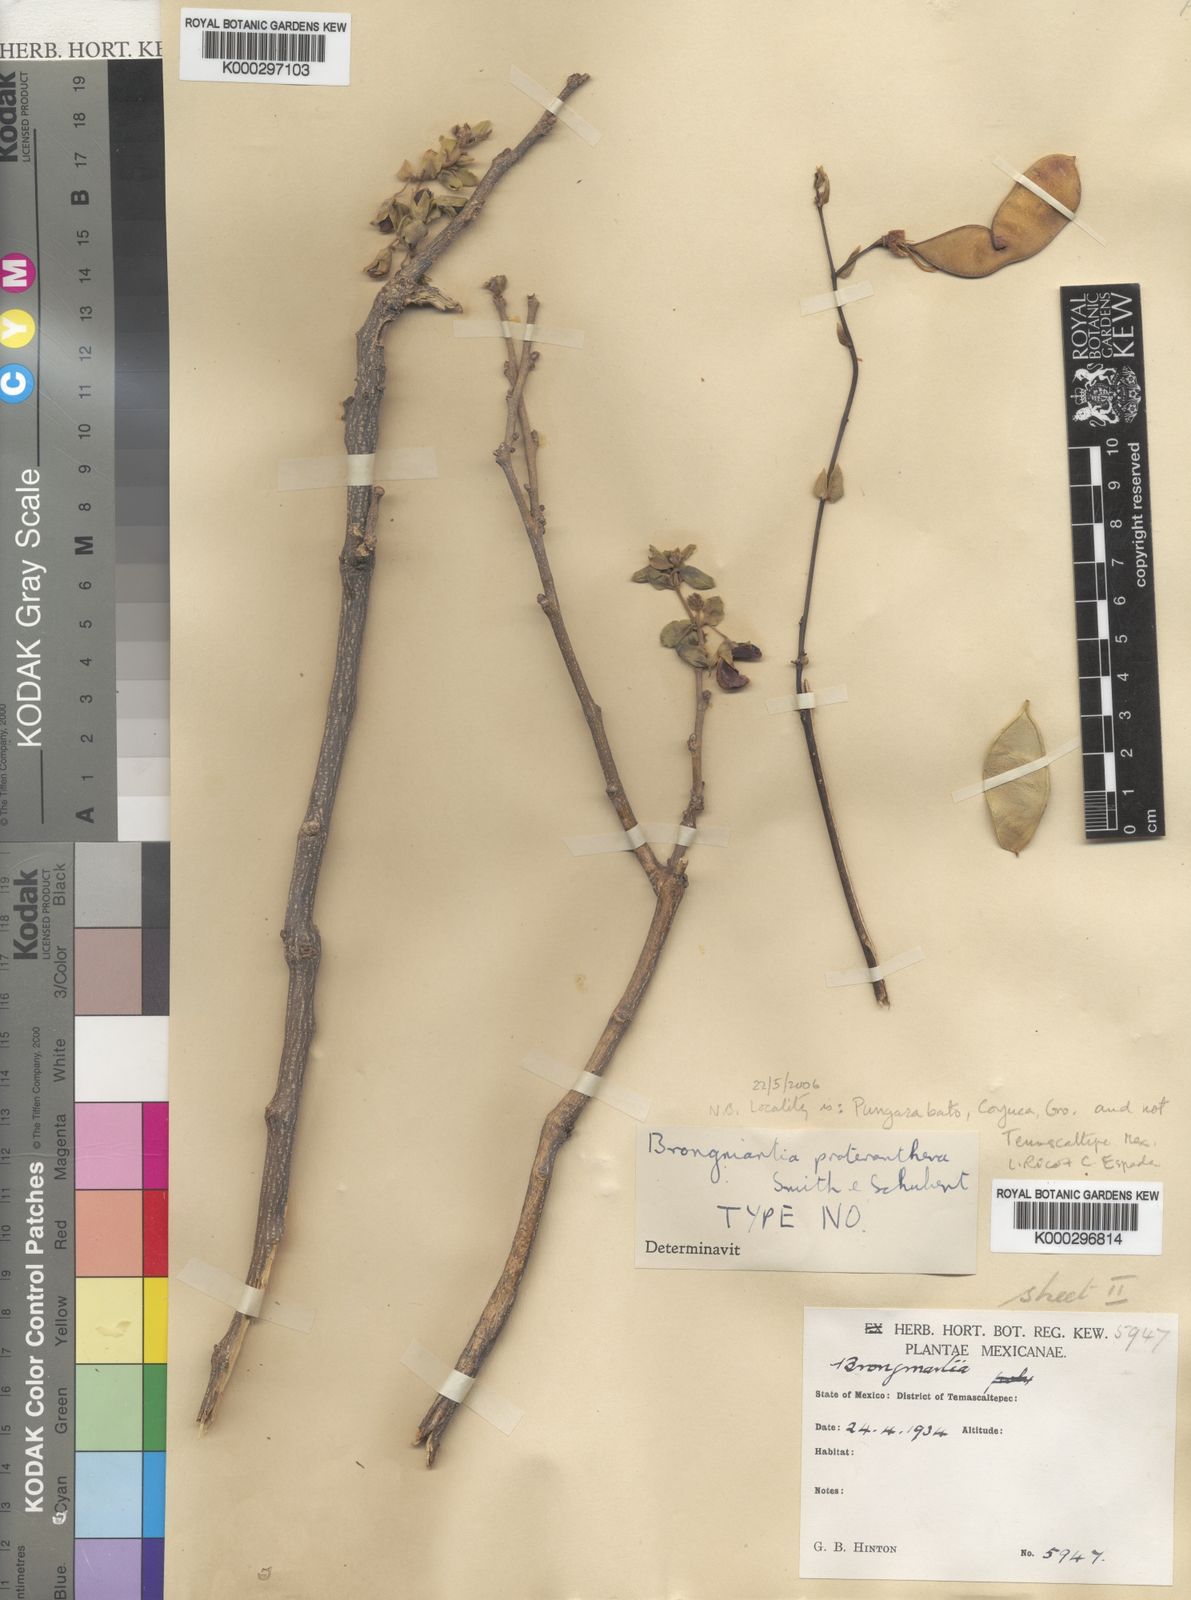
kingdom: Plantae
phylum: Tracheophyta
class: Magnoliopsida
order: Fabales
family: Fabaceae
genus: Brongniartia
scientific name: Brongniartia alamosana
